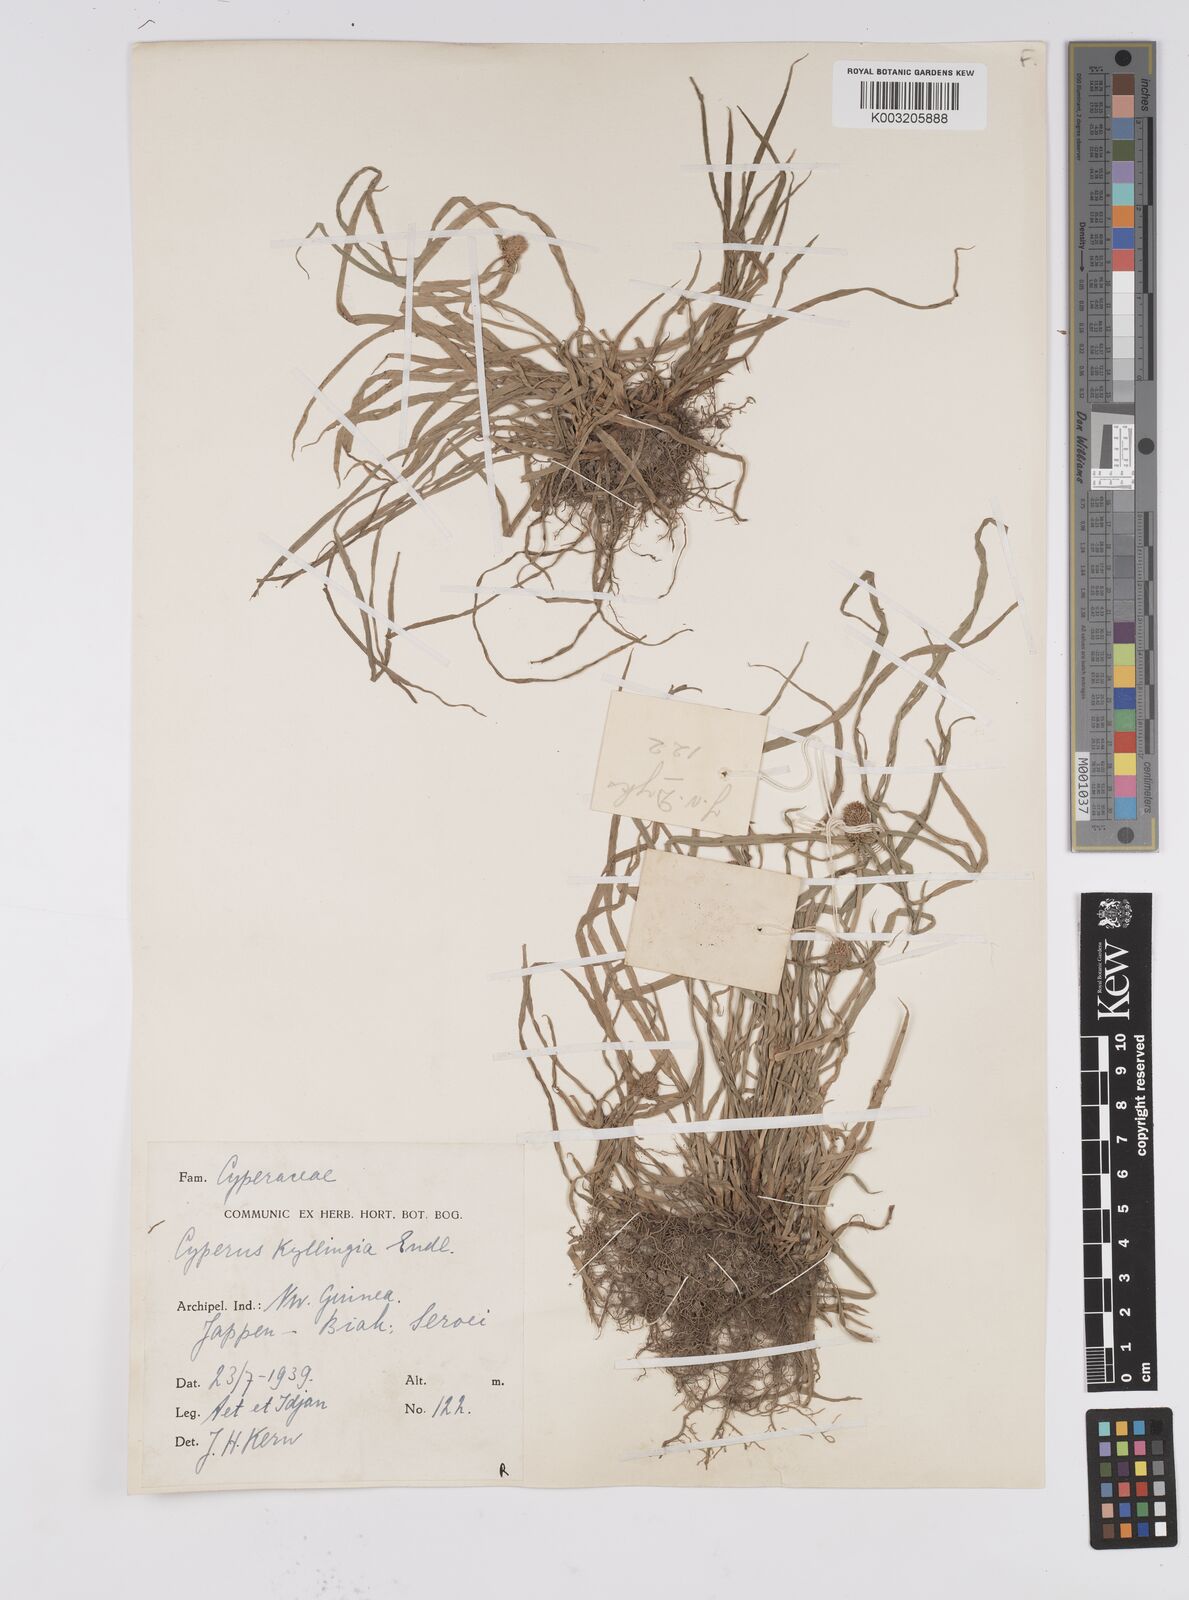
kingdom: Plantae
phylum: Tracheophyta
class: Liliopsida
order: Poales
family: Cyperaceae
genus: Cyperus
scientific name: Cyperus nemoralis
